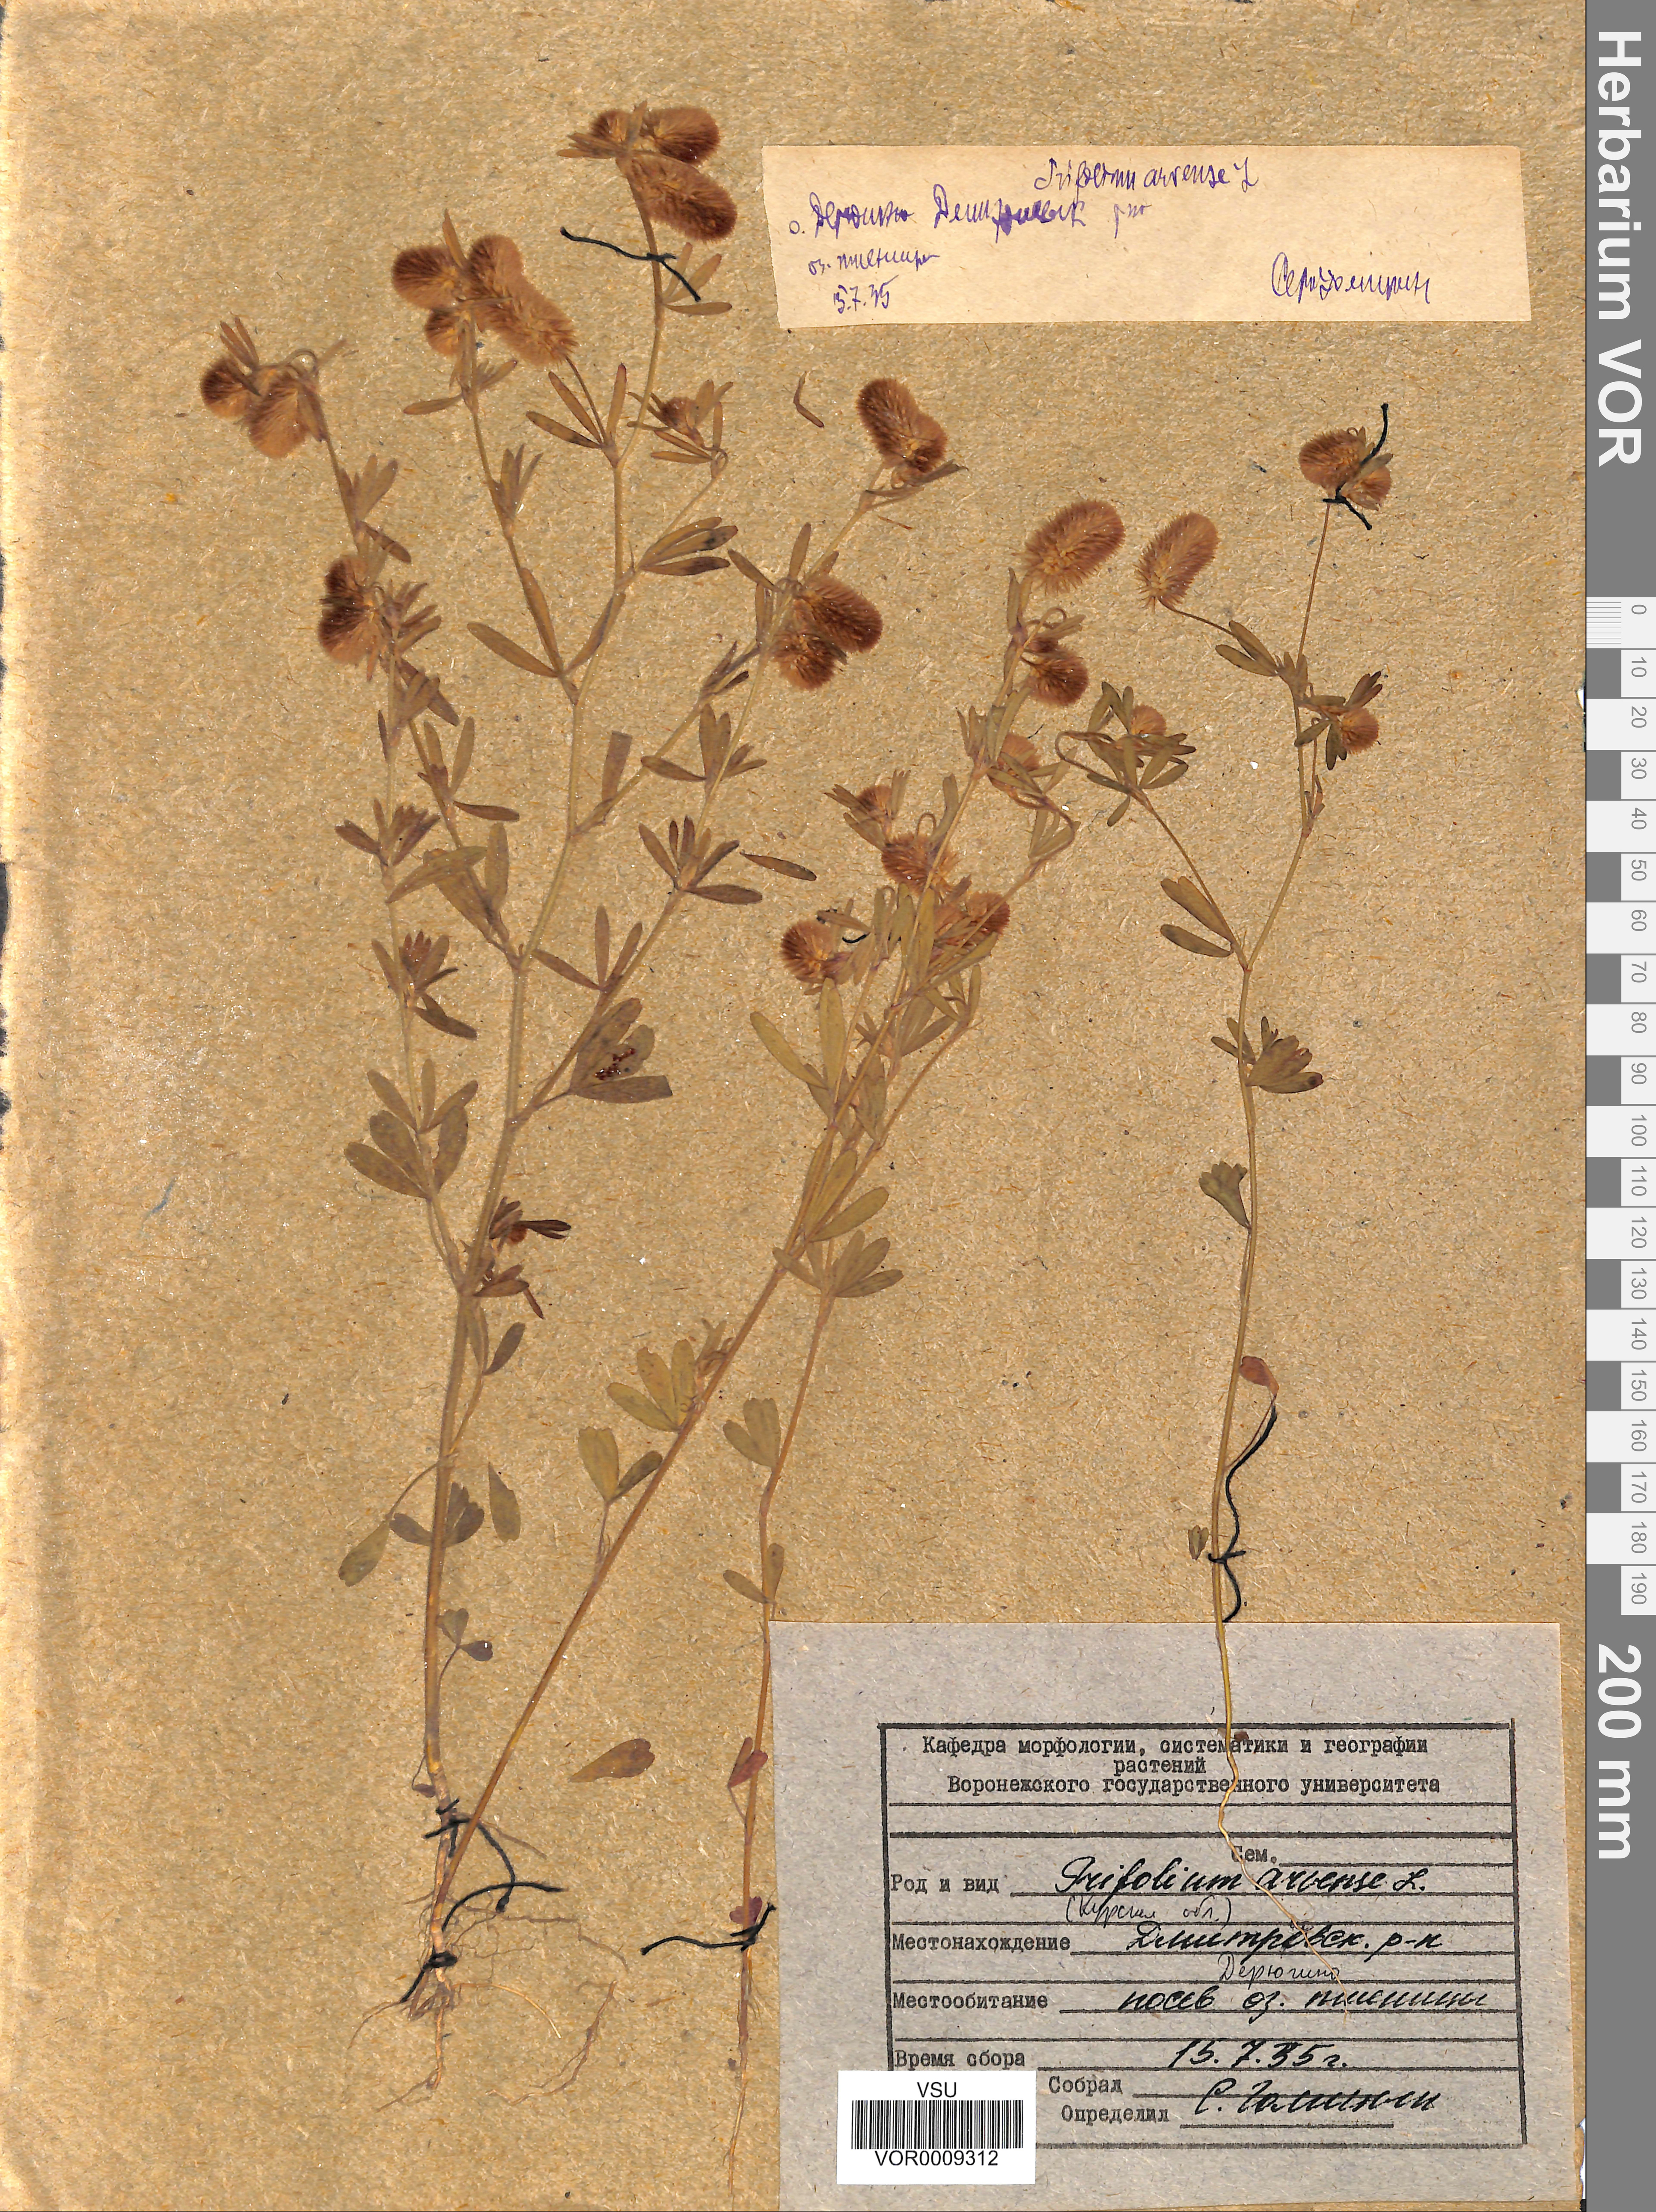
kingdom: Plantae
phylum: Tracheophyta
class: Magnoliopsida
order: Fabales
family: Fabaceae
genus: Trifolium
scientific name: Trifolium arvense
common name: Hare's-foot clover
